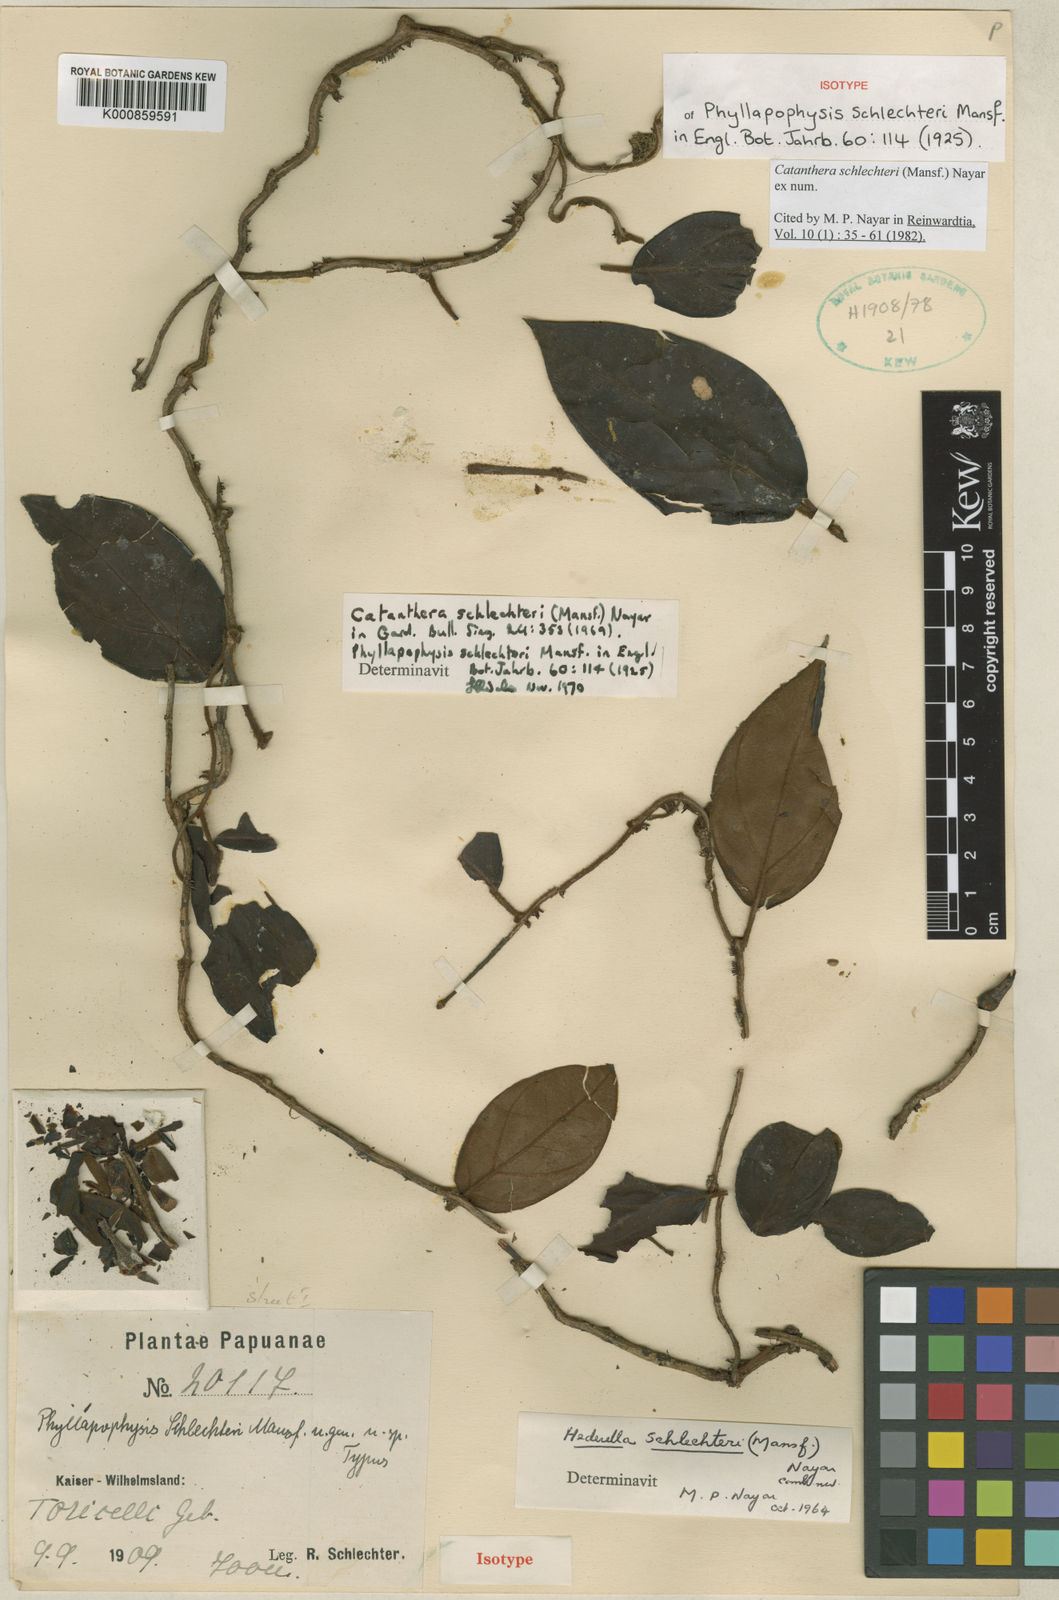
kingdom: Plantae
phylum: Tracheophyta
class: Magnoliopsida
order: Myrtales
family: Melastomataceae
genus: Catanthera
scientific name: Catanthera schlechteri
